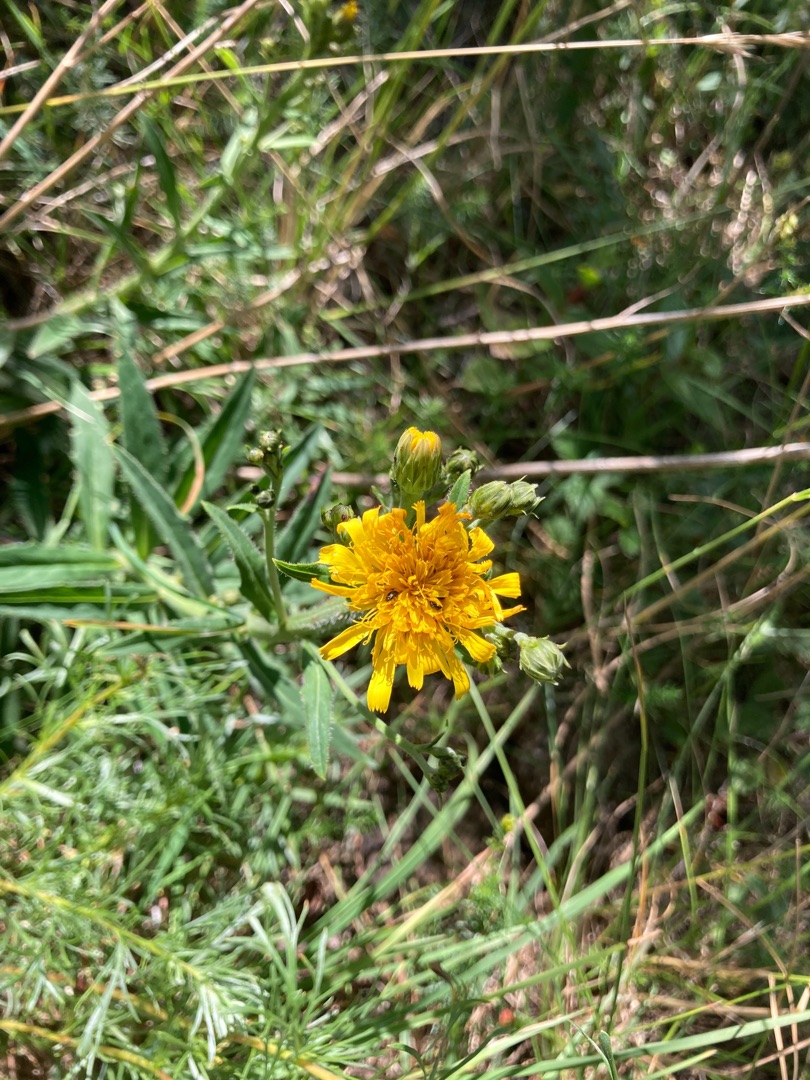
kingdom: Plantae
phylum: Tracheophyta
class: Magnoliopsida
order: Asterales
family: Asteraceae
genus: Hieracioides
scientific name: Hieracioides
